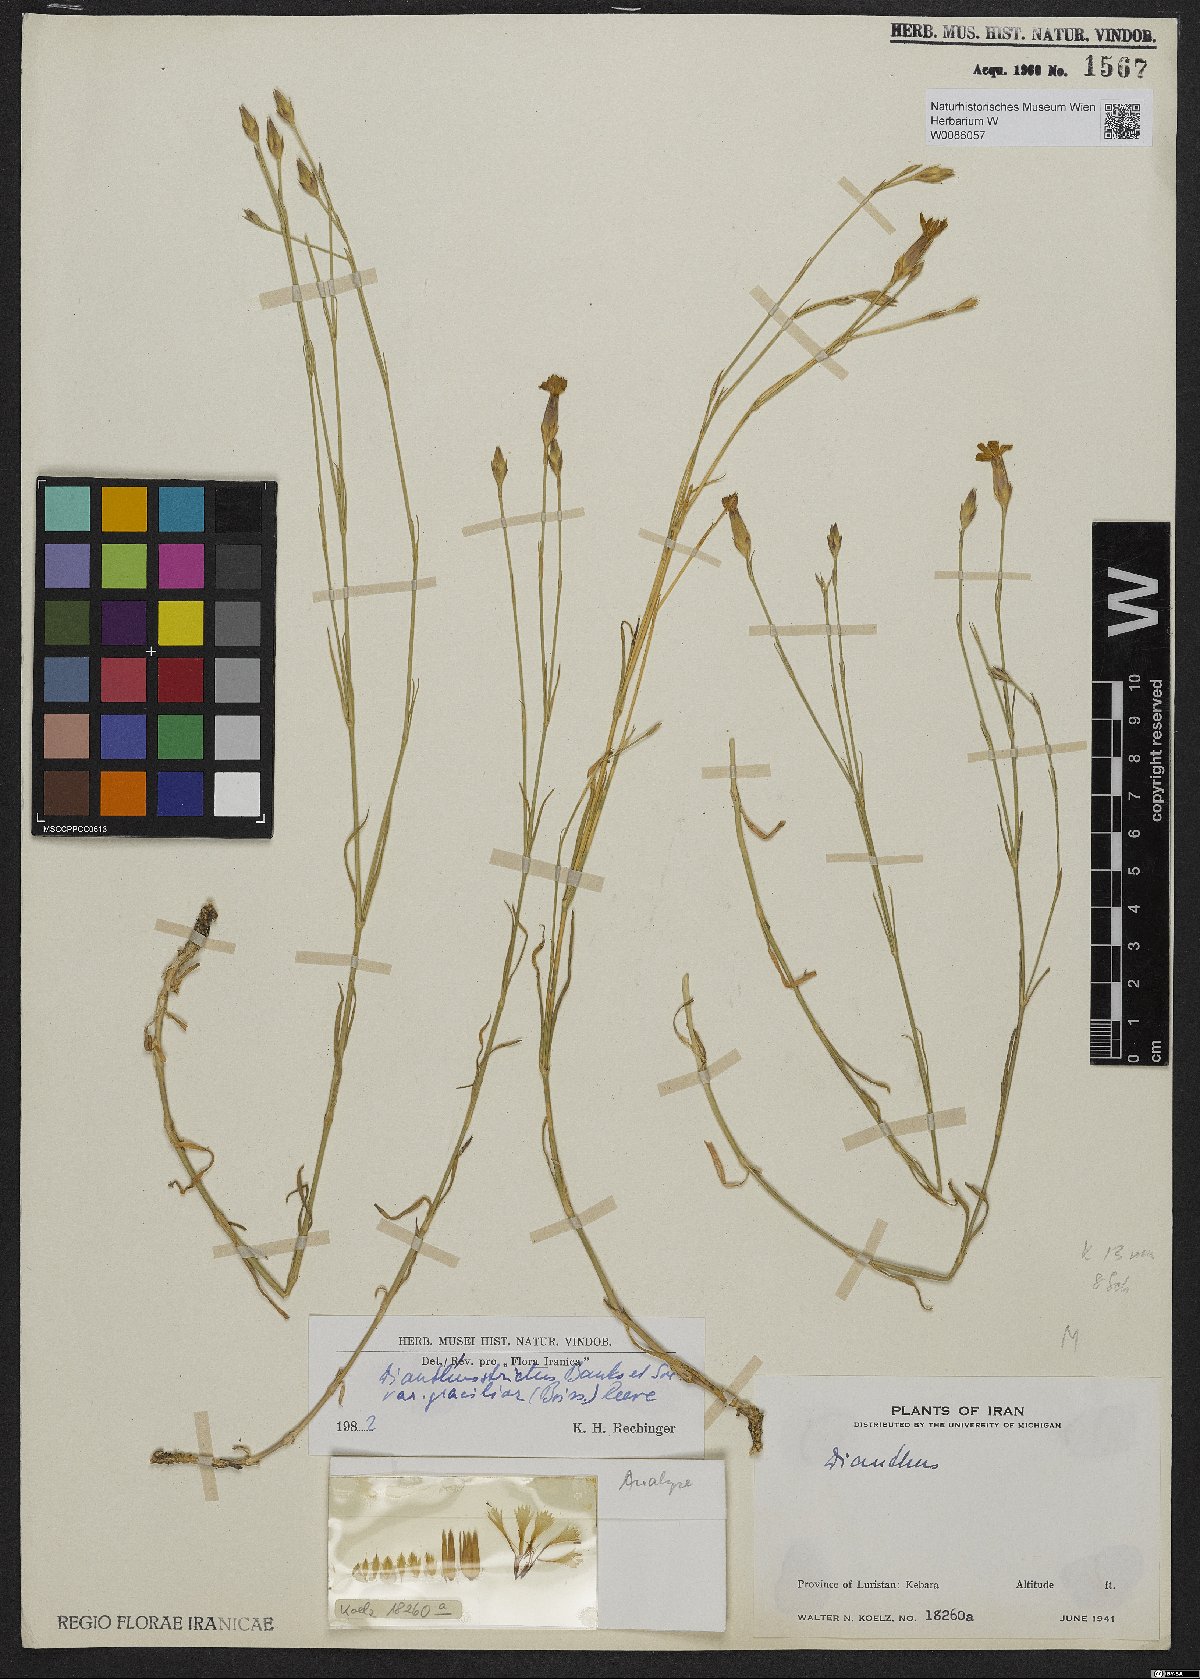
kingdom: Plantae
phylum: Tracheophyta
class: Magnoliopsida
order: Caryophyllales
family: Caryophyllaceae
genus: Dianthus
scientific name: Dianthus strictus
